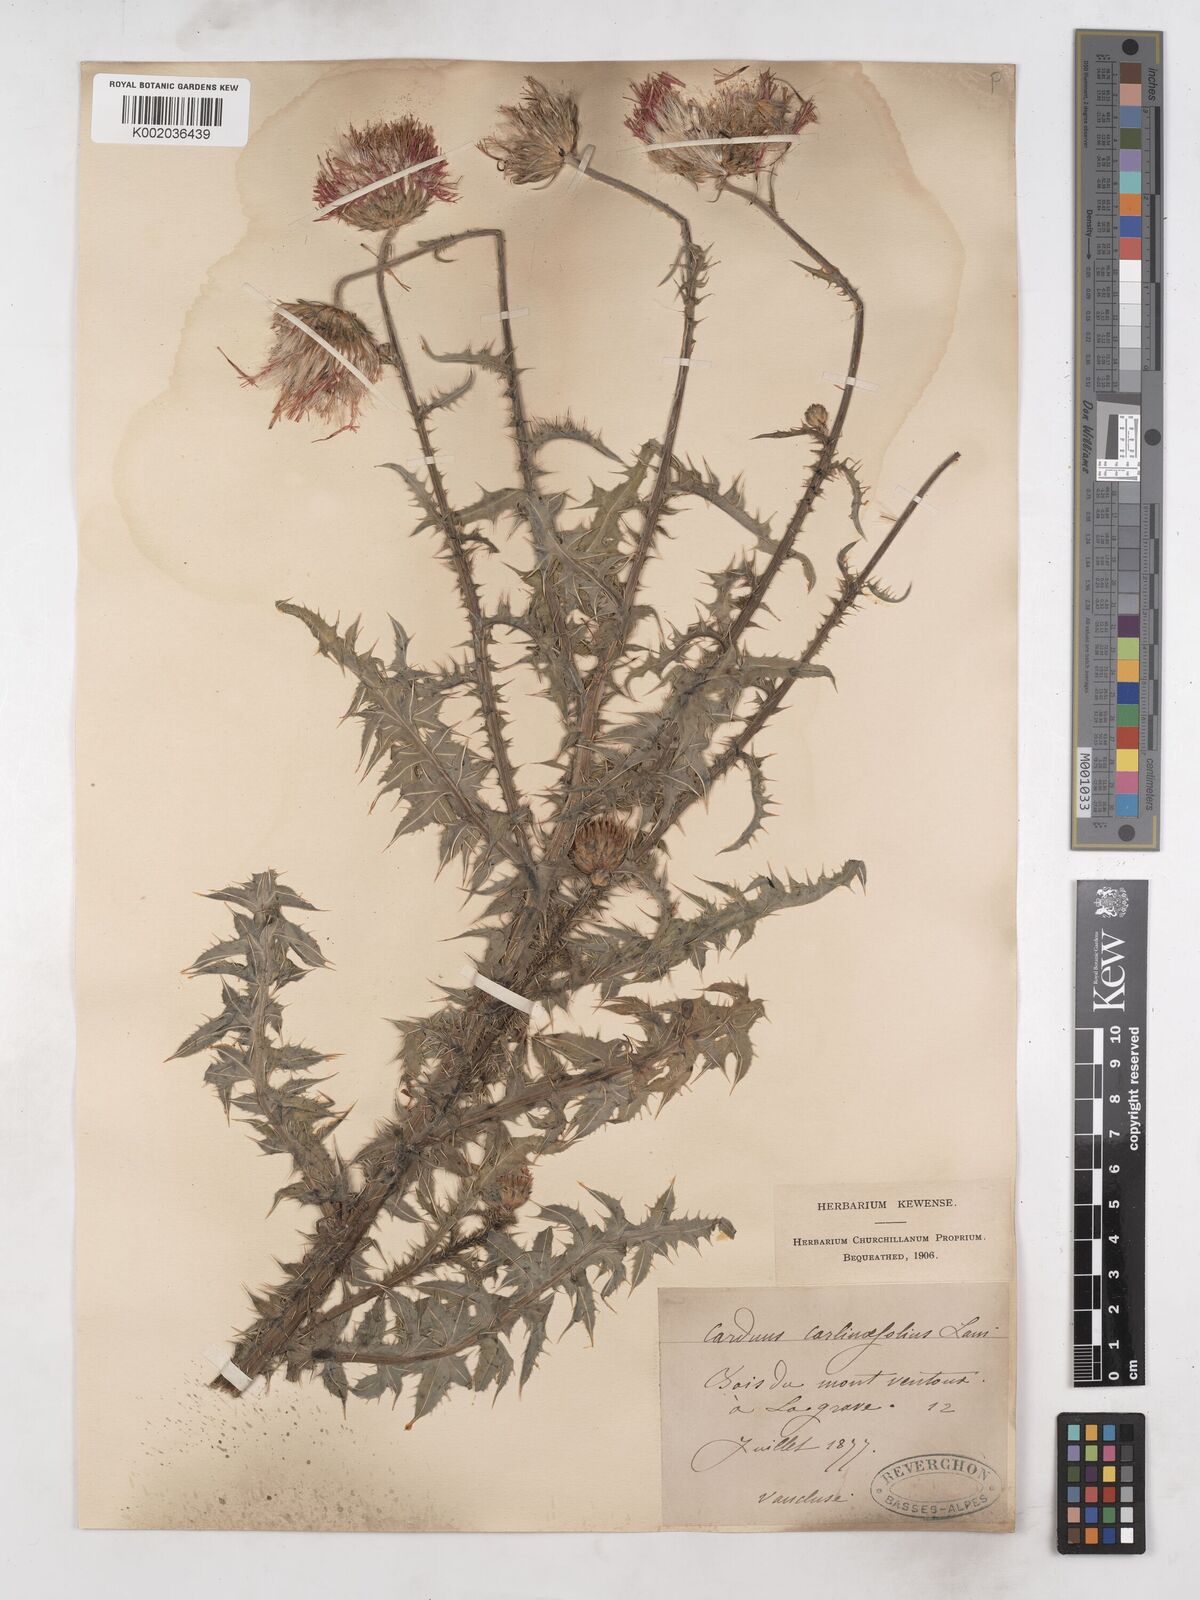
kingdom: Plantae
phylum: Tracheophyta
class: Magnoliopsida
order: Asterales
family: Asteraceae
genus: Carduus
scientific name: Carduus carlinifolius
